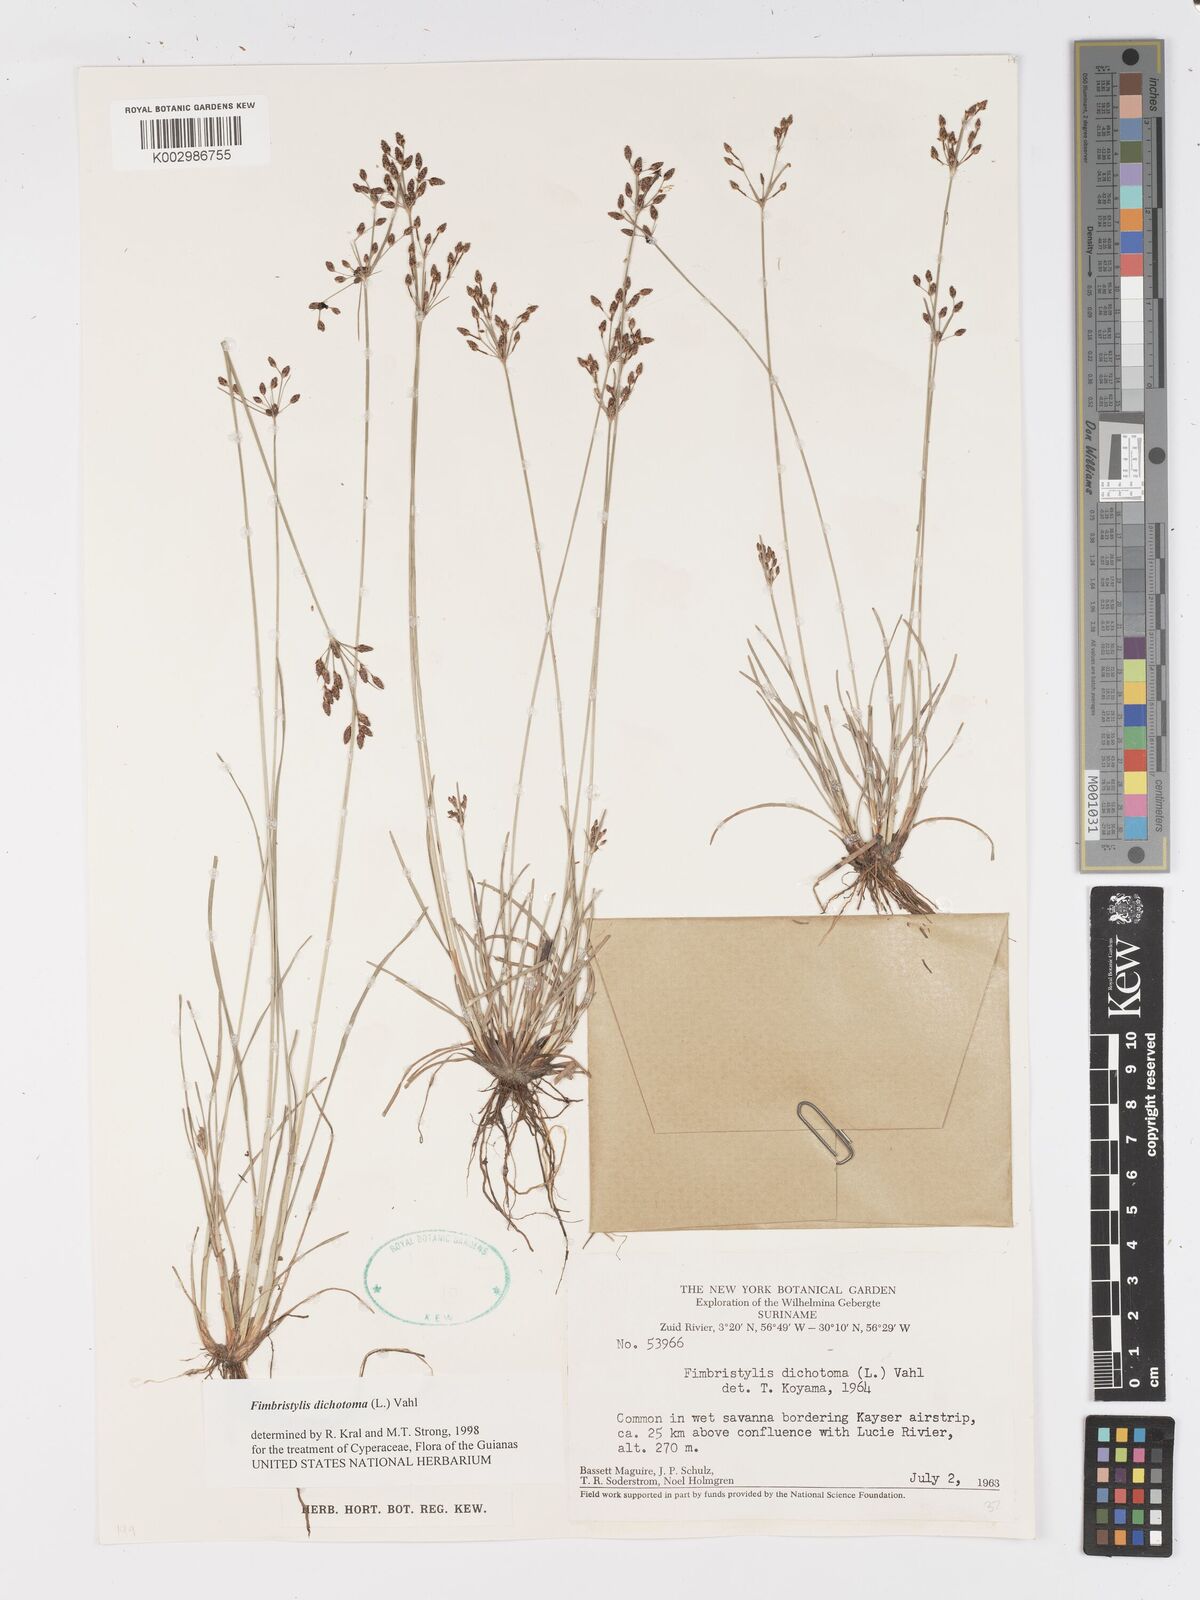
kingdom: Plantae
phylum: Tracheophyta
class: Liliopsida
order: Poales
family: Cyperaceae
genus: Fimbristylis
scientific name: Fimbristylis dichotoma
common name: Forked fimbry
